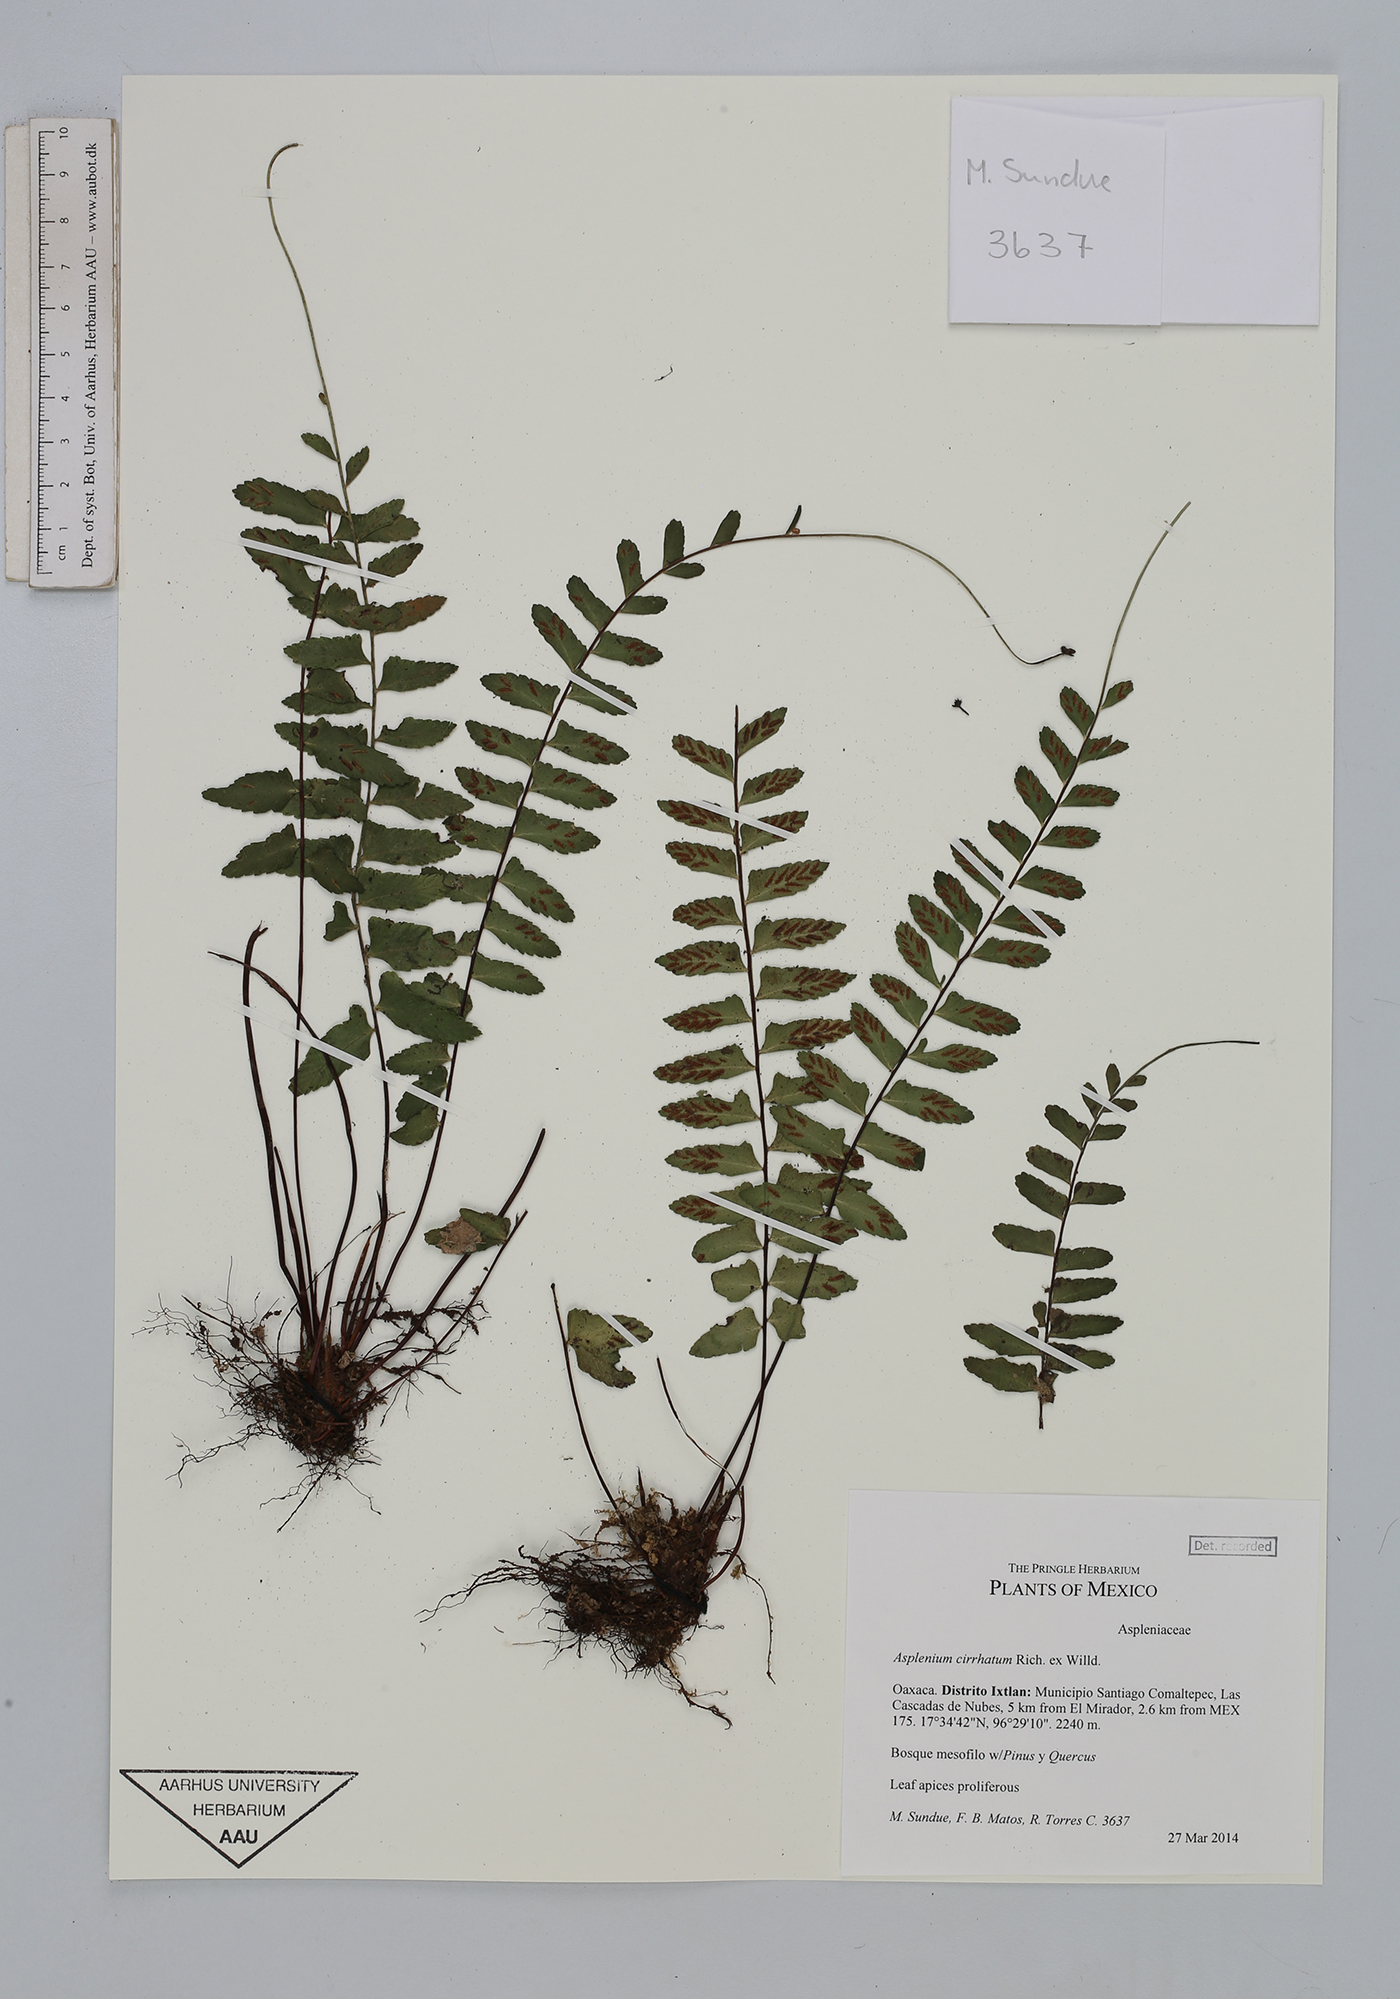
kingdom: Plantae
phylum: Tracheophyta
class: Polypodiopsida
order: Polypodiales
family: Aspleniaceae
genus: Asplenium
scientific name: Asplenium cirrhatum
